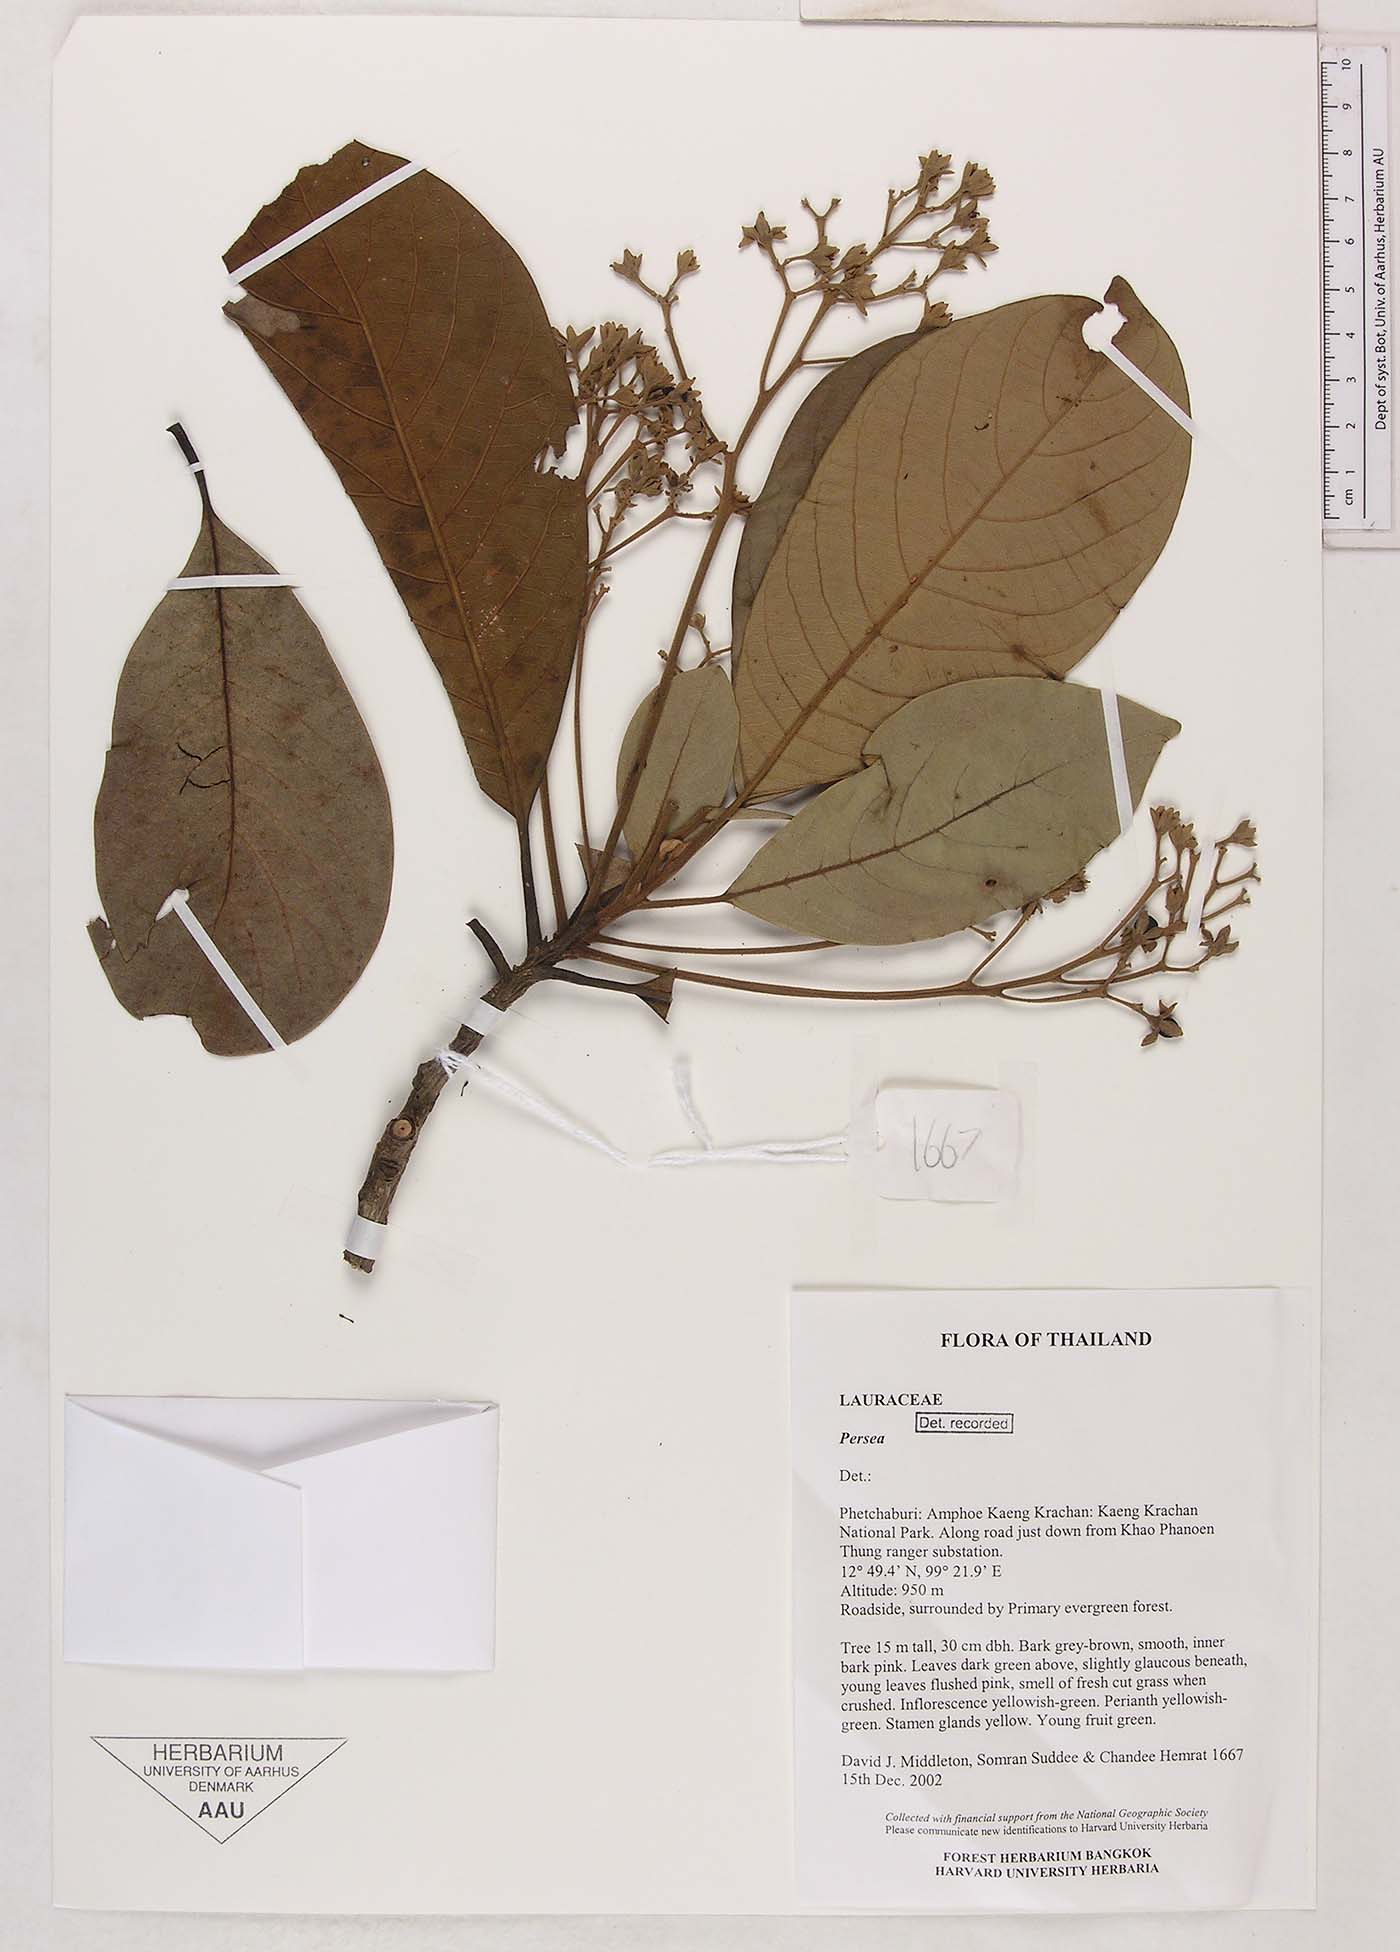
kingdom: Plantae
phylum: Tracheophyta
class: Magnoliopsida
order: Laurales
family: Lauraceae
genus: Persea
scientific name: Persea
